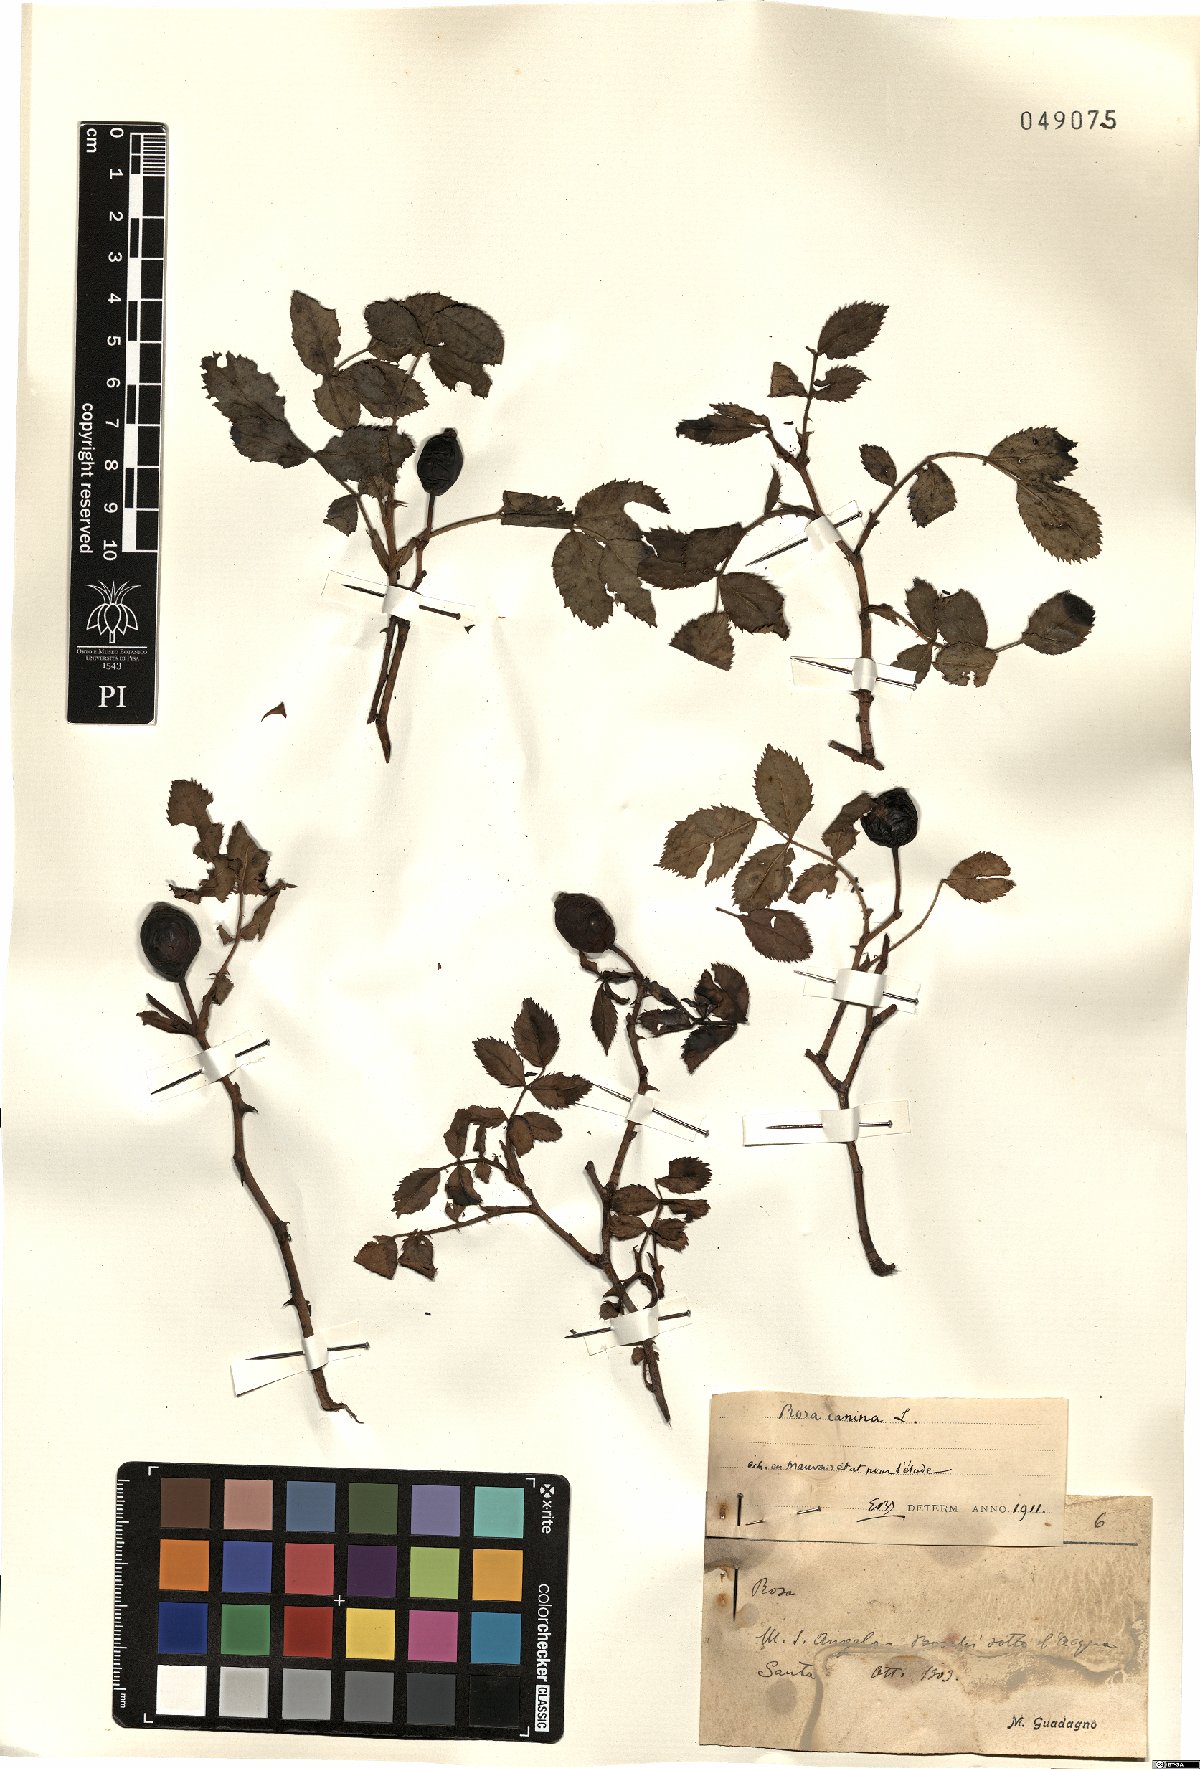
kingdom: Plantae
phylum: Tracheophyta
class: Magnoliopsida
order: Rosales
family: Rosaceae
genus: Rosa
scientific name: Rosa canina
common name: Dog rose
